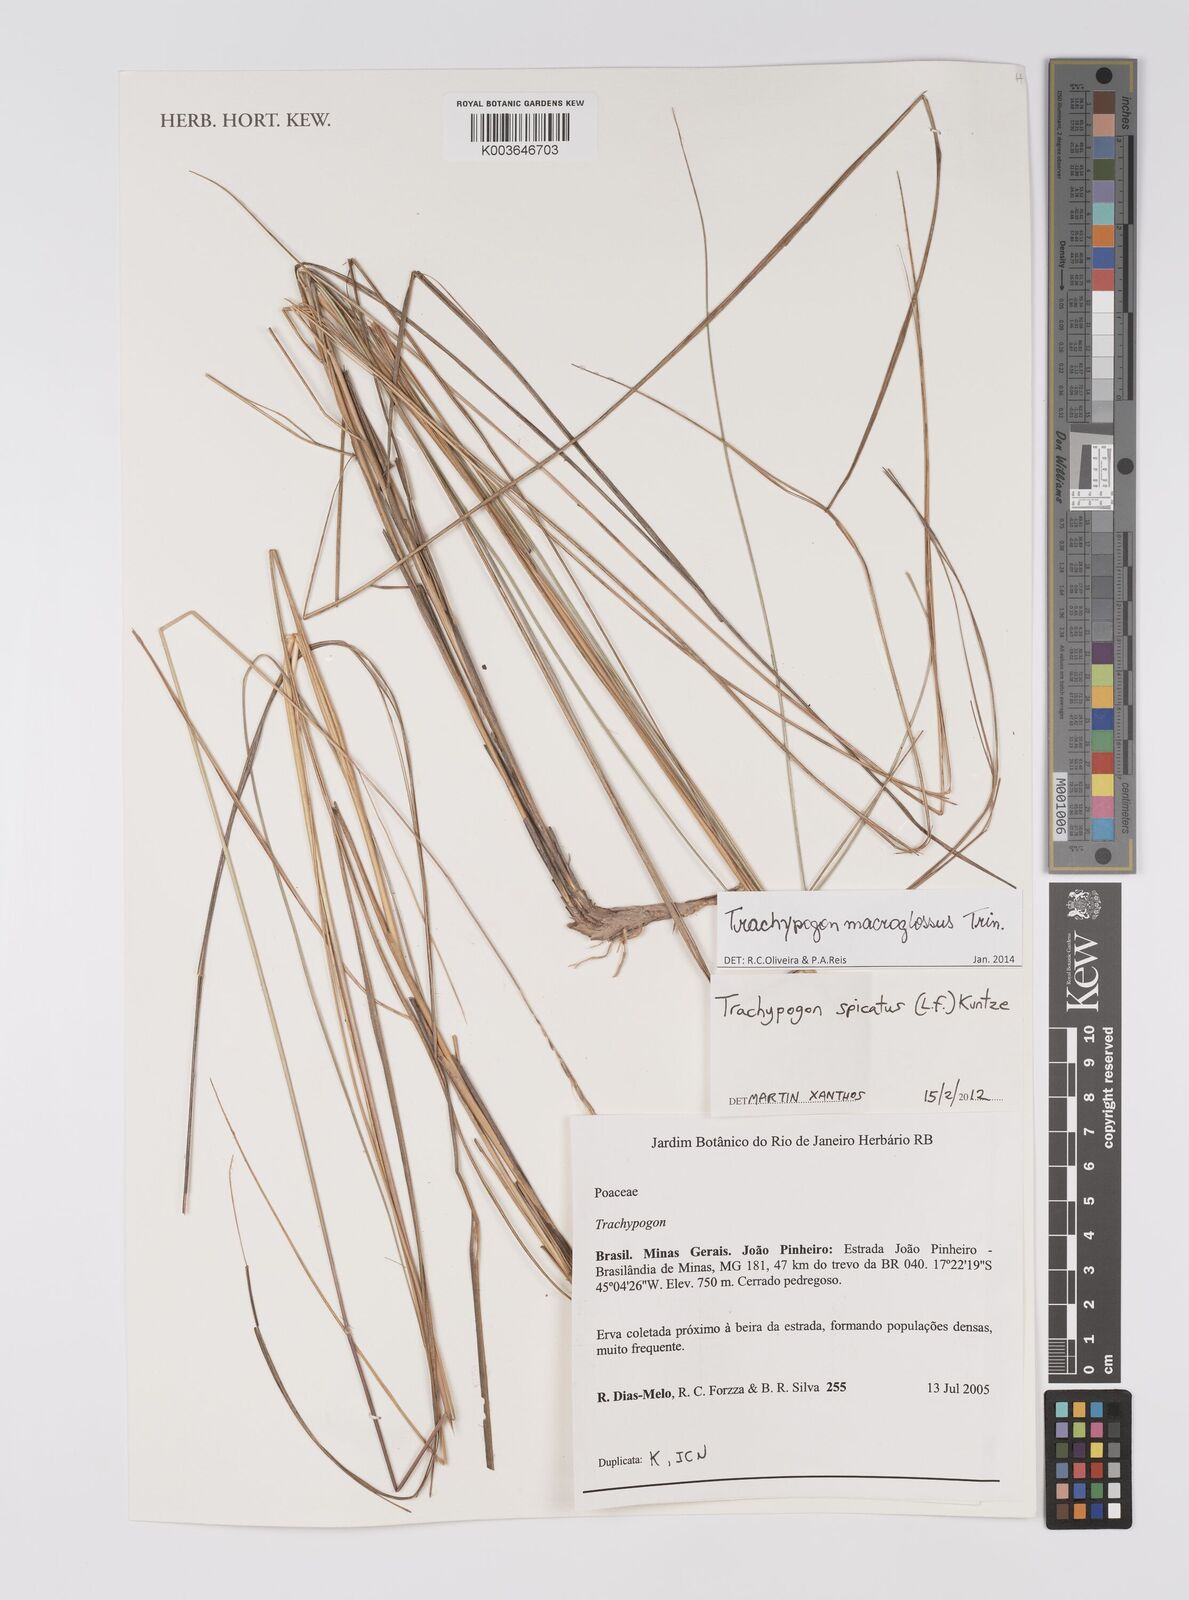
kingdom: Plantae
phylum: Tracheophyta
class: Liliopsida
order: Poales
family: Poaceae
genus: Trachypogon
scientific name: Trachypogon macroglossus
